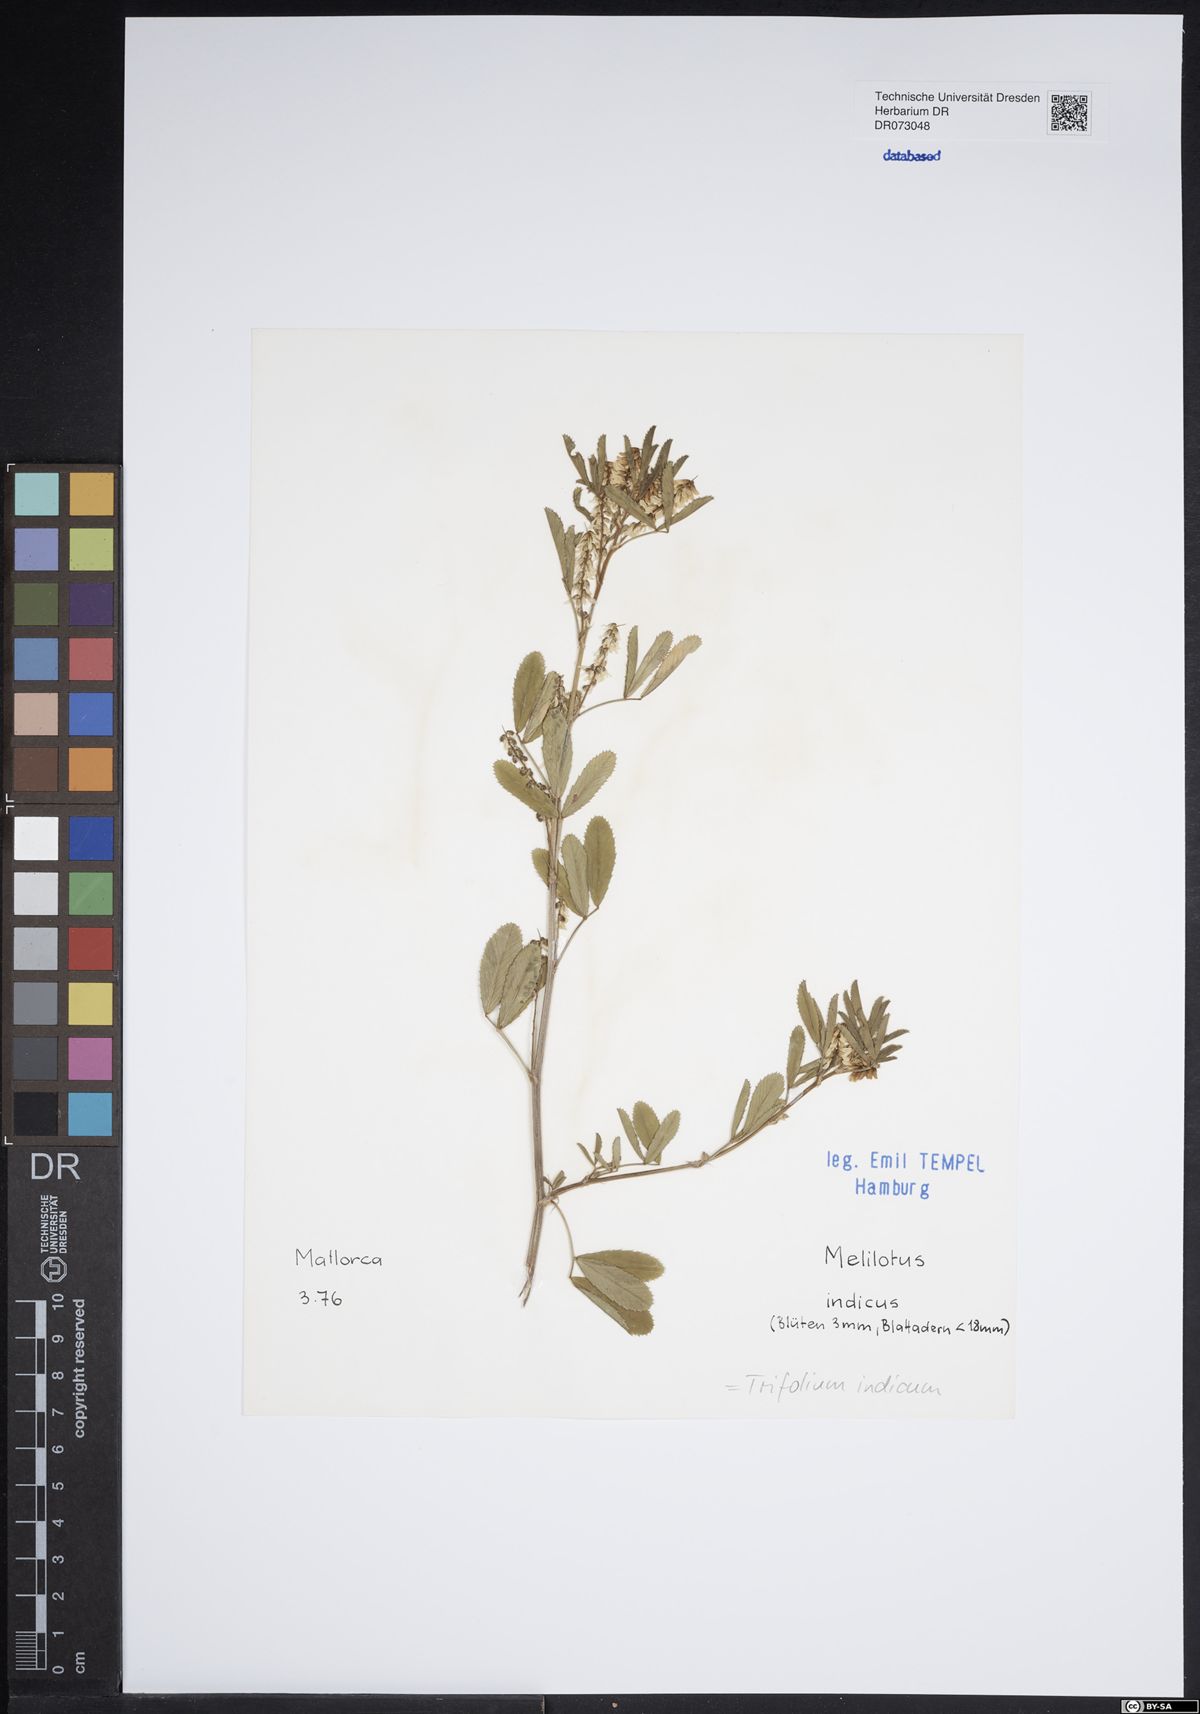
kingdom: Plantae
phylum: Tracheophyta
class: Magnoliopsida
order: Fabales
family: Fabaceae
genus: Lathyrus
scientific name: Lathyrus ochrus
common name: Winged vetchling
